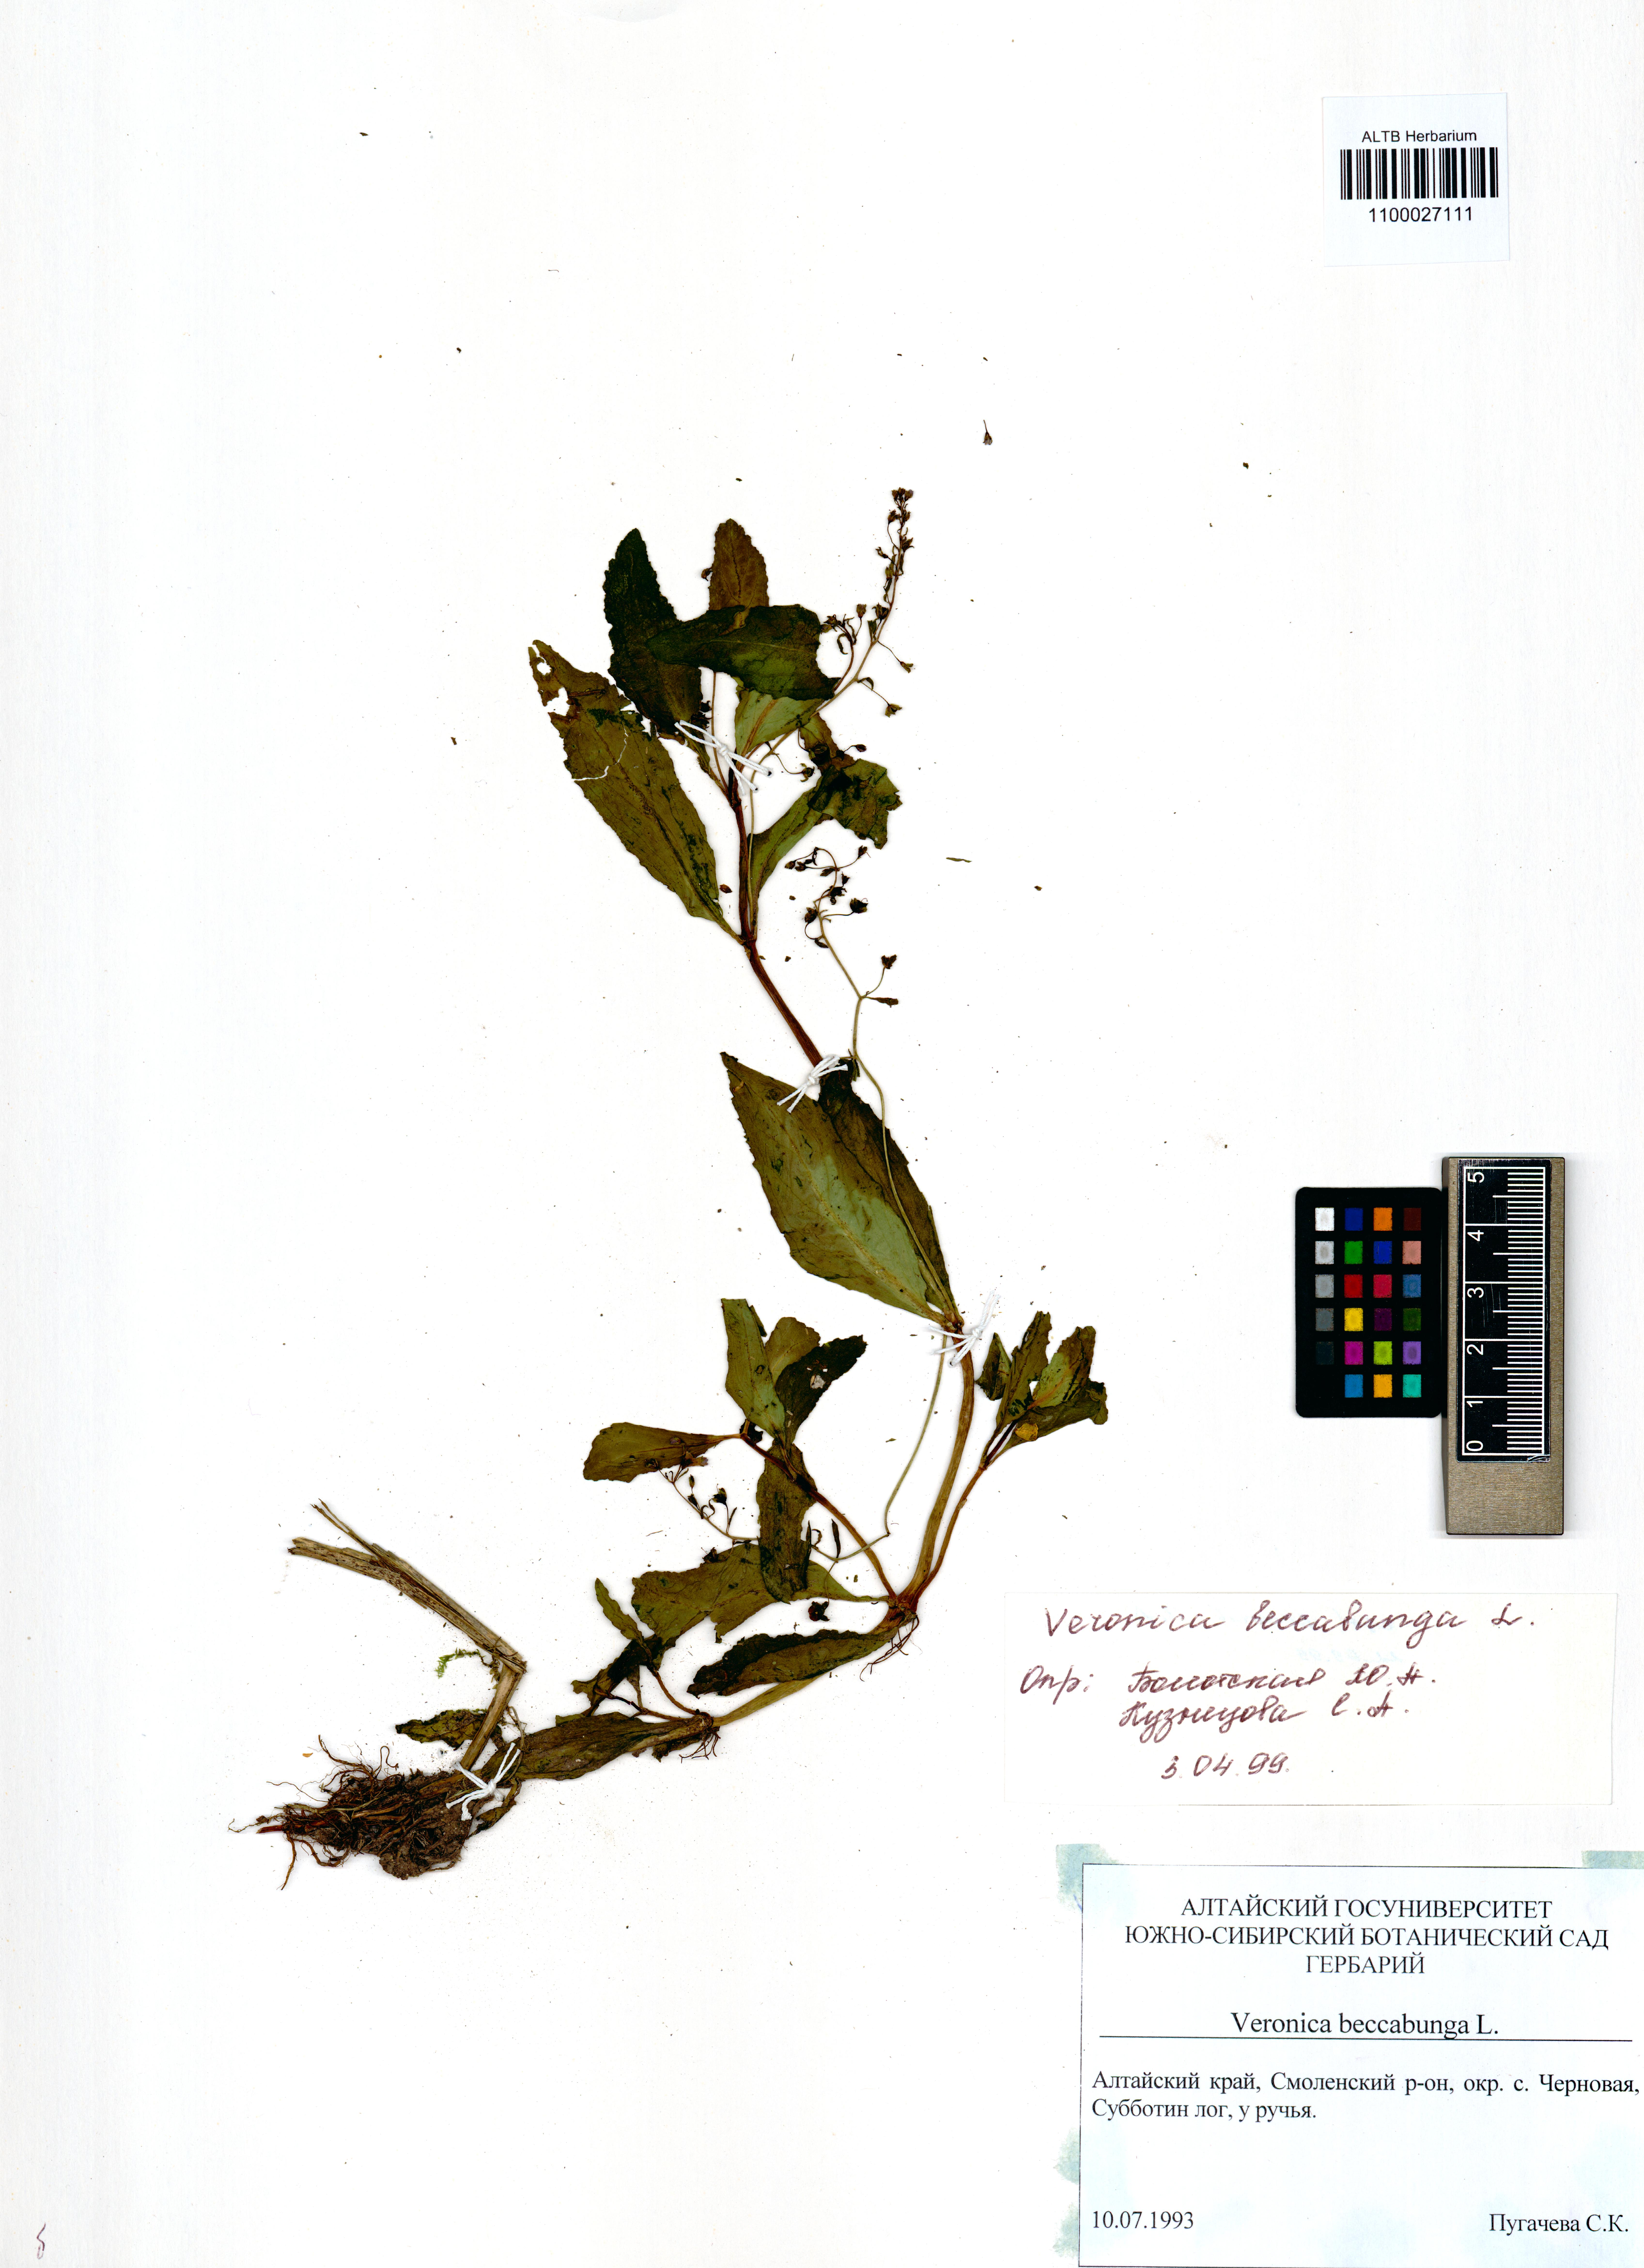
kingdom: Plantae
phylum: Tracheophyta
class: Magnoliopsida
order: Lamiales
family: Plantaginaceae
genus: Veronica
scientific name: Veronica beccabunga
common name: Brooklime
